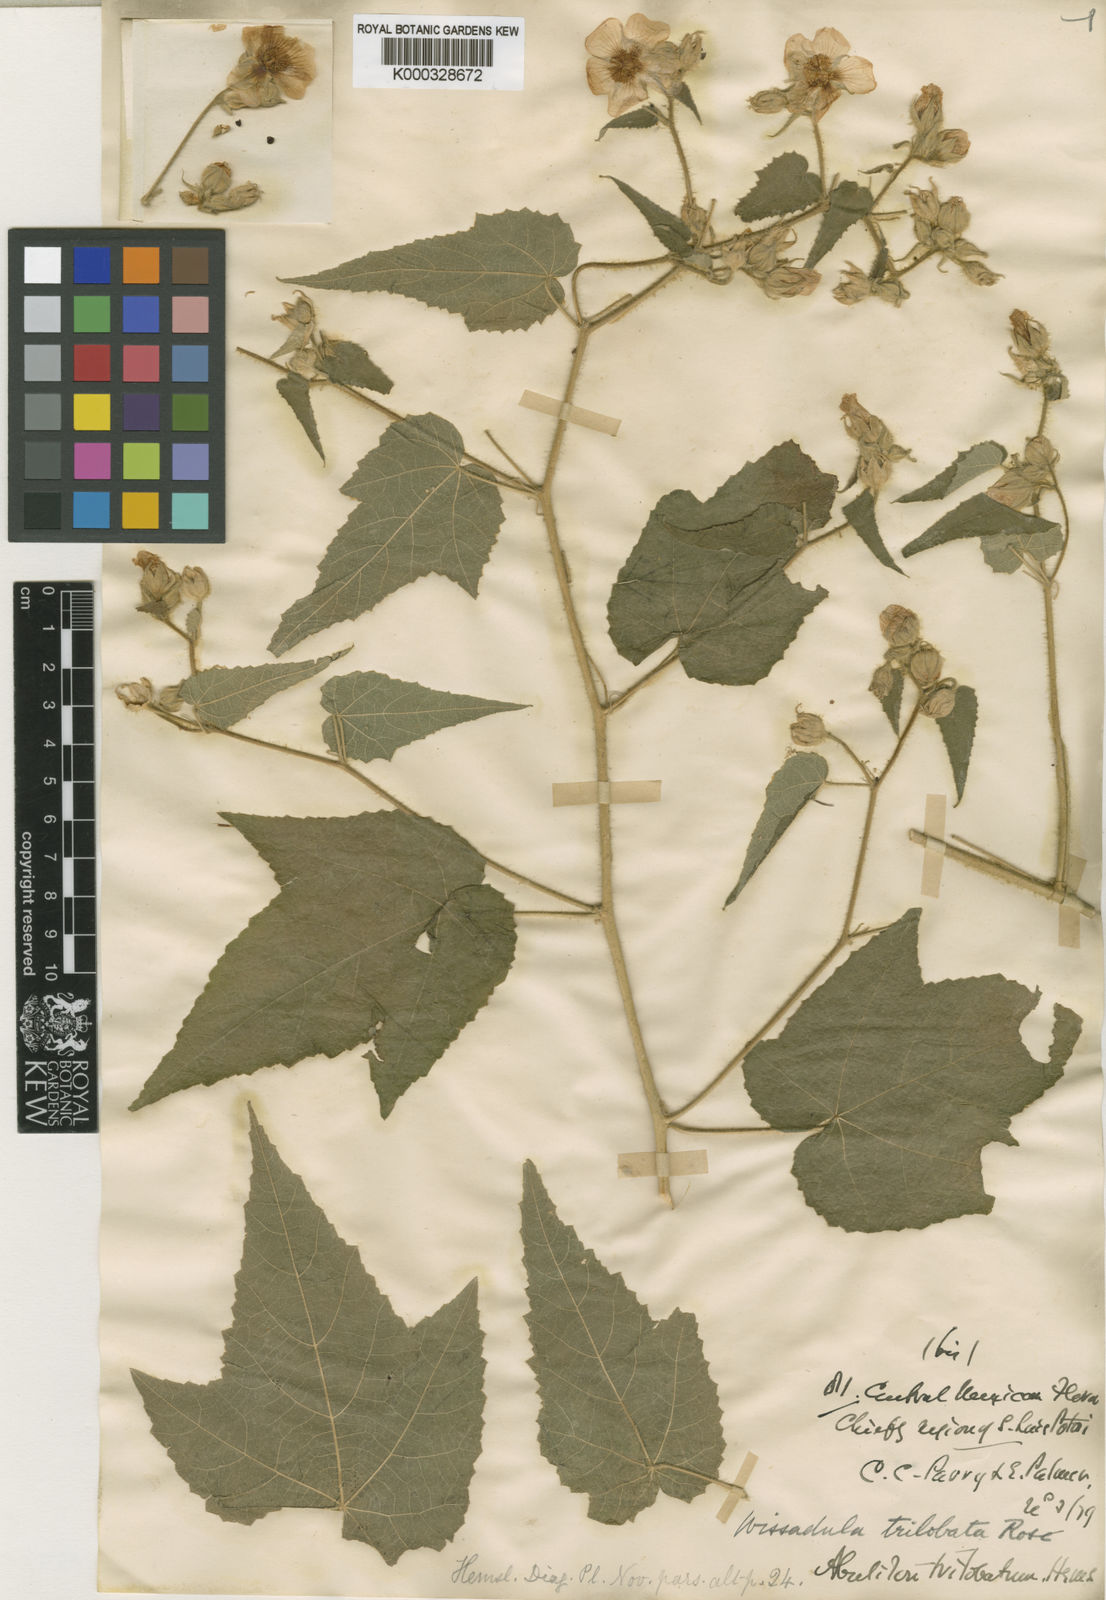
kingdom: Plantae
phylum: Tracheophyta
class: Magnoliopsida
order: Malvales
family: Malvaceae
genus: Allowissadula
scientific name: Allowissadula sessei
